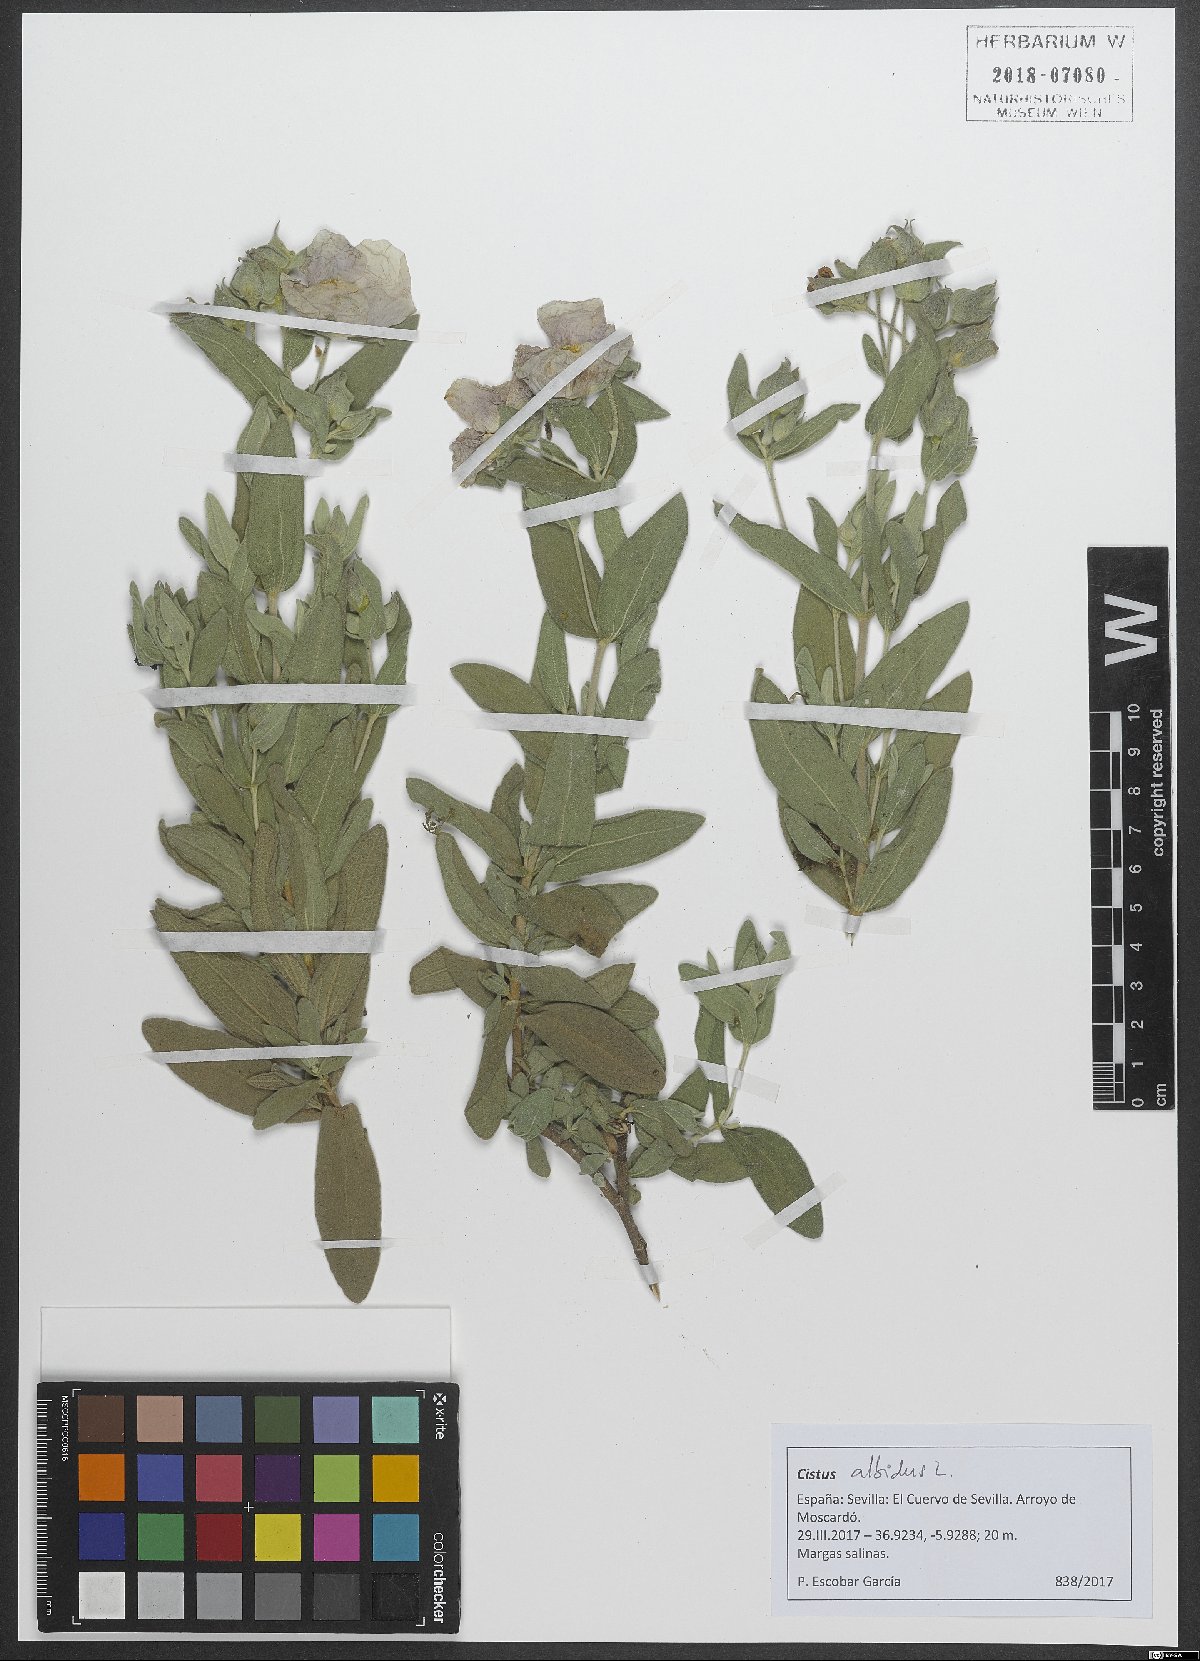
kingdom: Plantae
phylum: Tracheophyta
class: Magnoliopsida
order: Malvales
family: Cistaceae
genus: Cistus
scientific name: Cistus albidus
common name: White-leaf rock-rose
